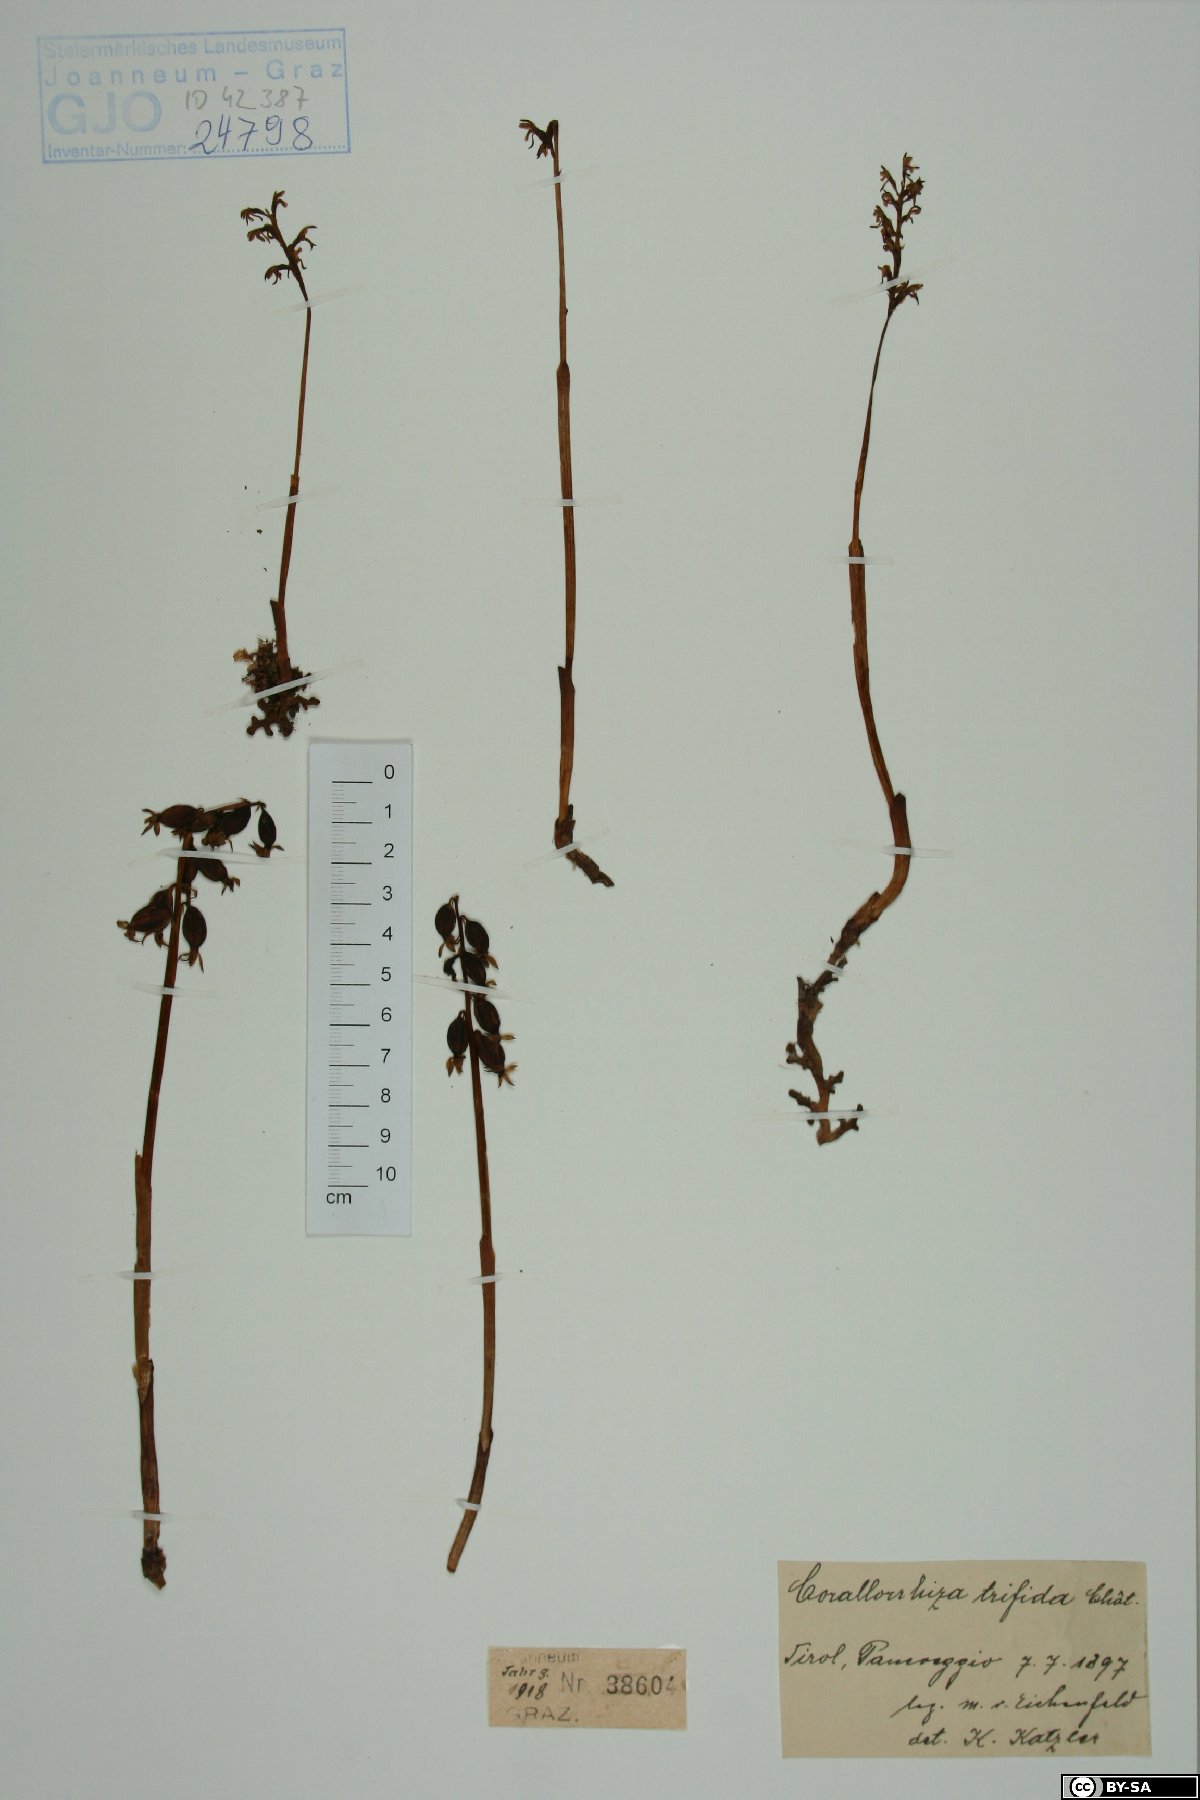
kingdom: Plantae
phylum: Tracheophyta
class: Liliopsida
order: Asparagales
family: Orchidaceae
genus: Corallorhiza
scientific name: Corallorhiza trifida
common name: Yellow coralroot
